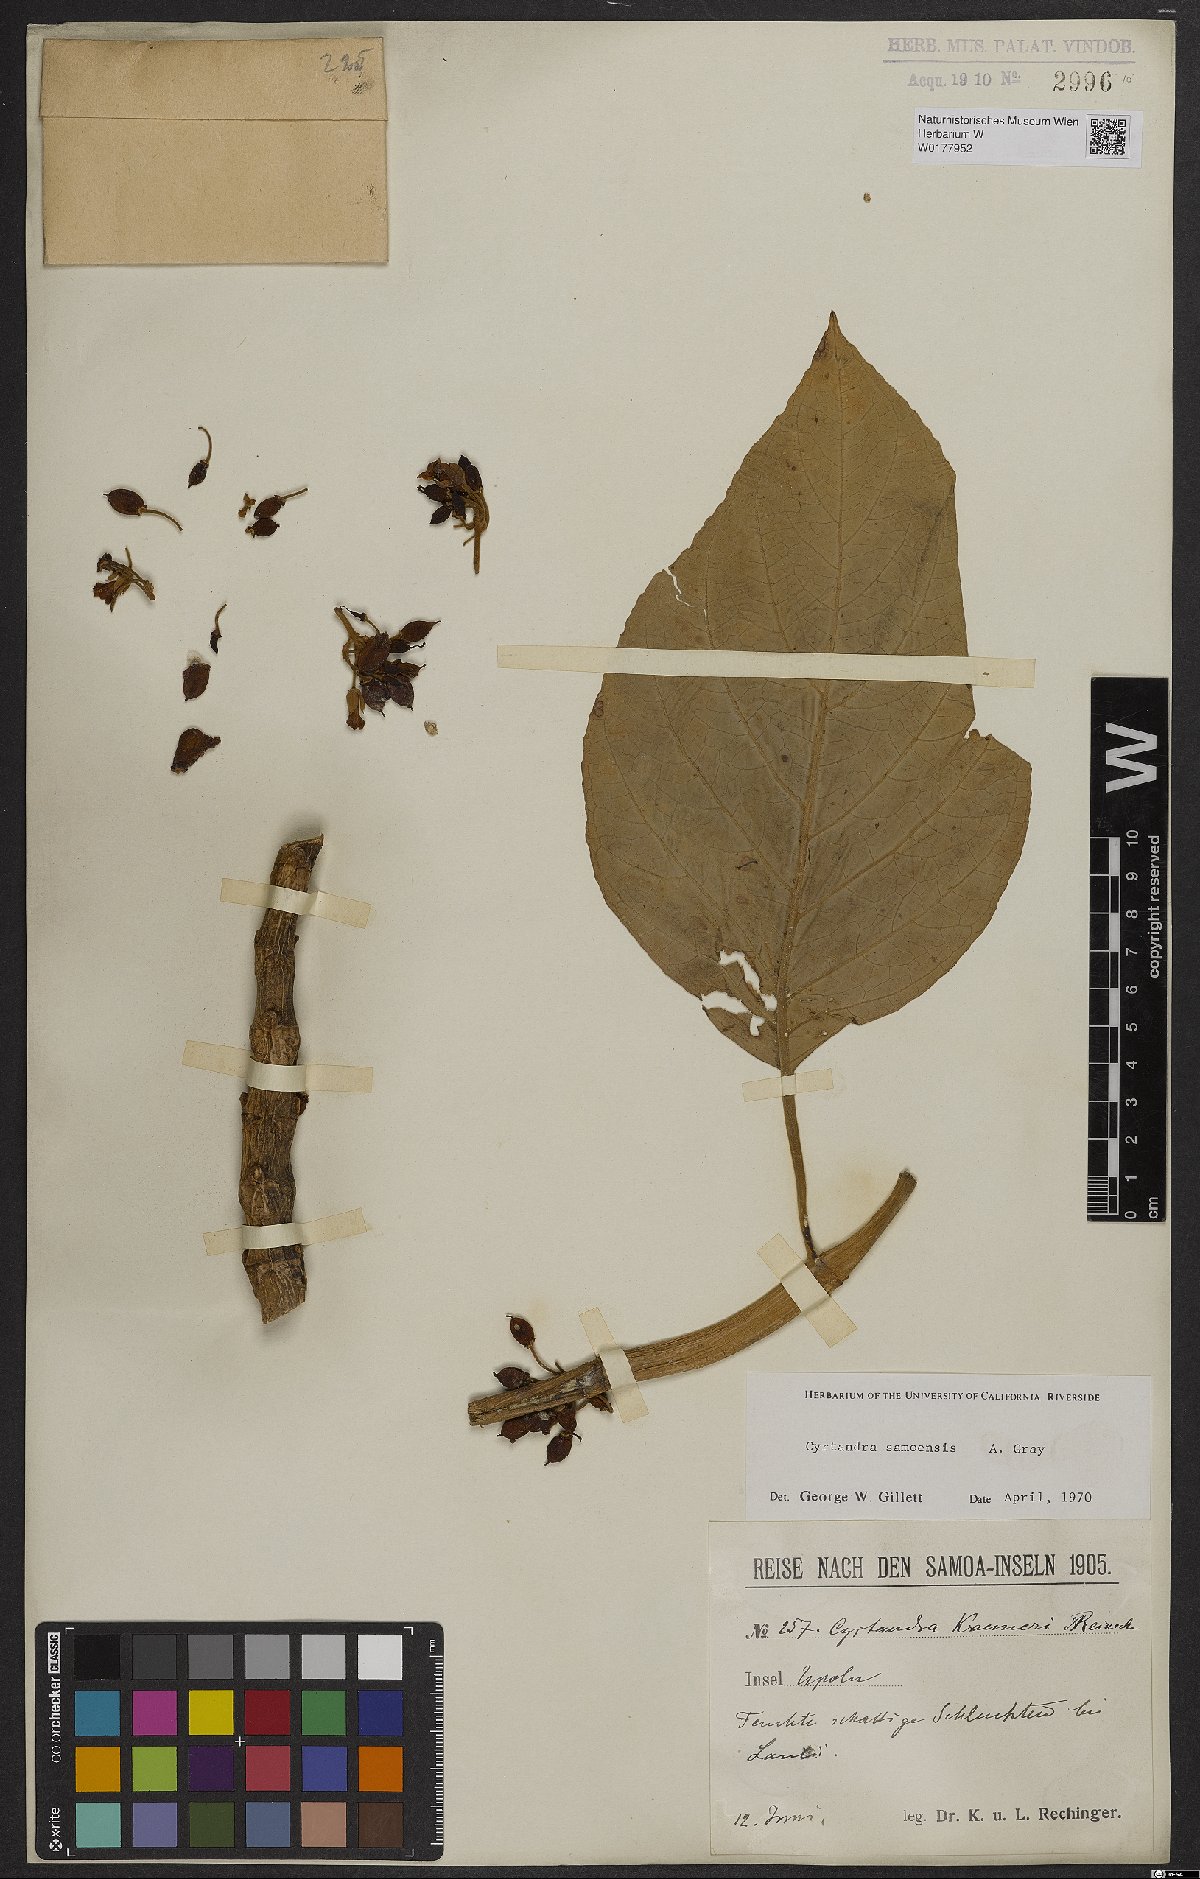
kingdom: Plantae
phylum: Tracheophyta
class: Magnoliopsida
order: Lamiales
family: Gesneriaceae
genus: Cyrtandra
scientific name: Cyrtandra samoensis
